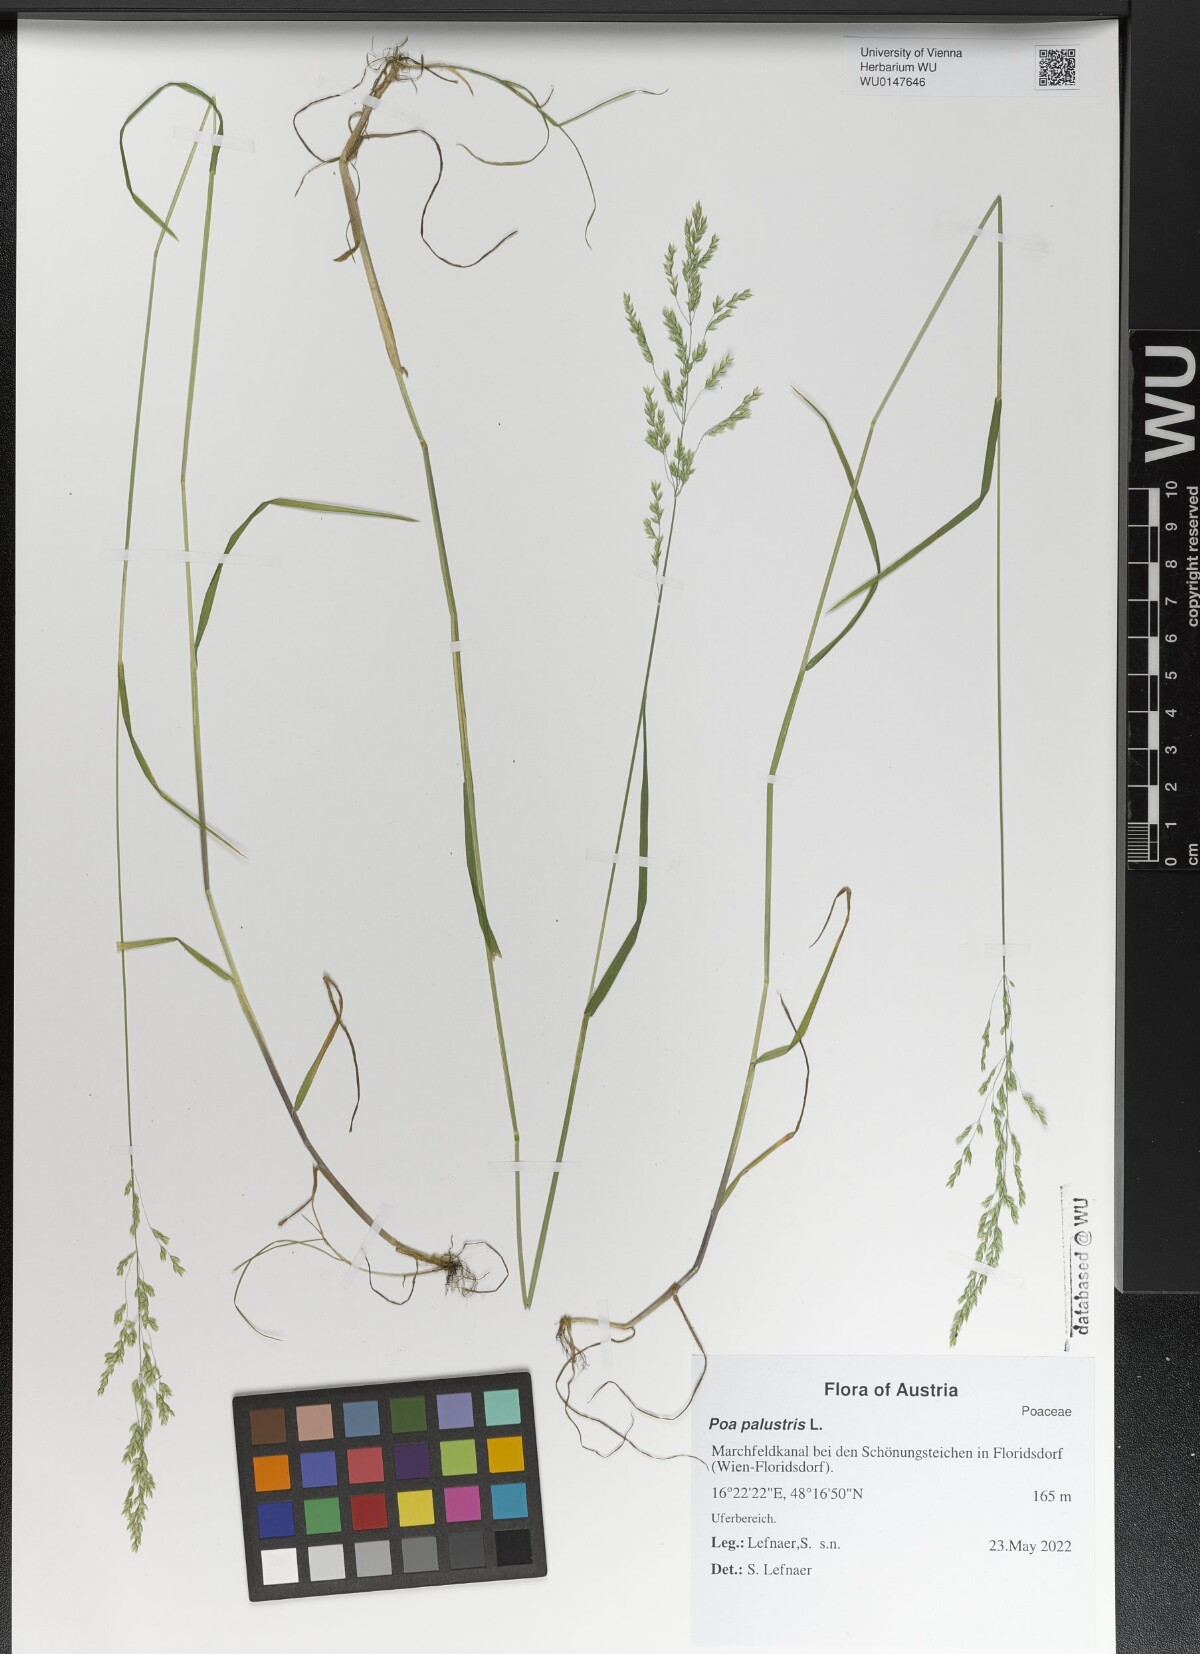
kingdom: Plantae
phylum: Tracheophyta
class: Liliopsida
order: Poales
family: Poaceae
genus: Poa
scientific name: Poa palustris
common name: Swamp meadow-grass
